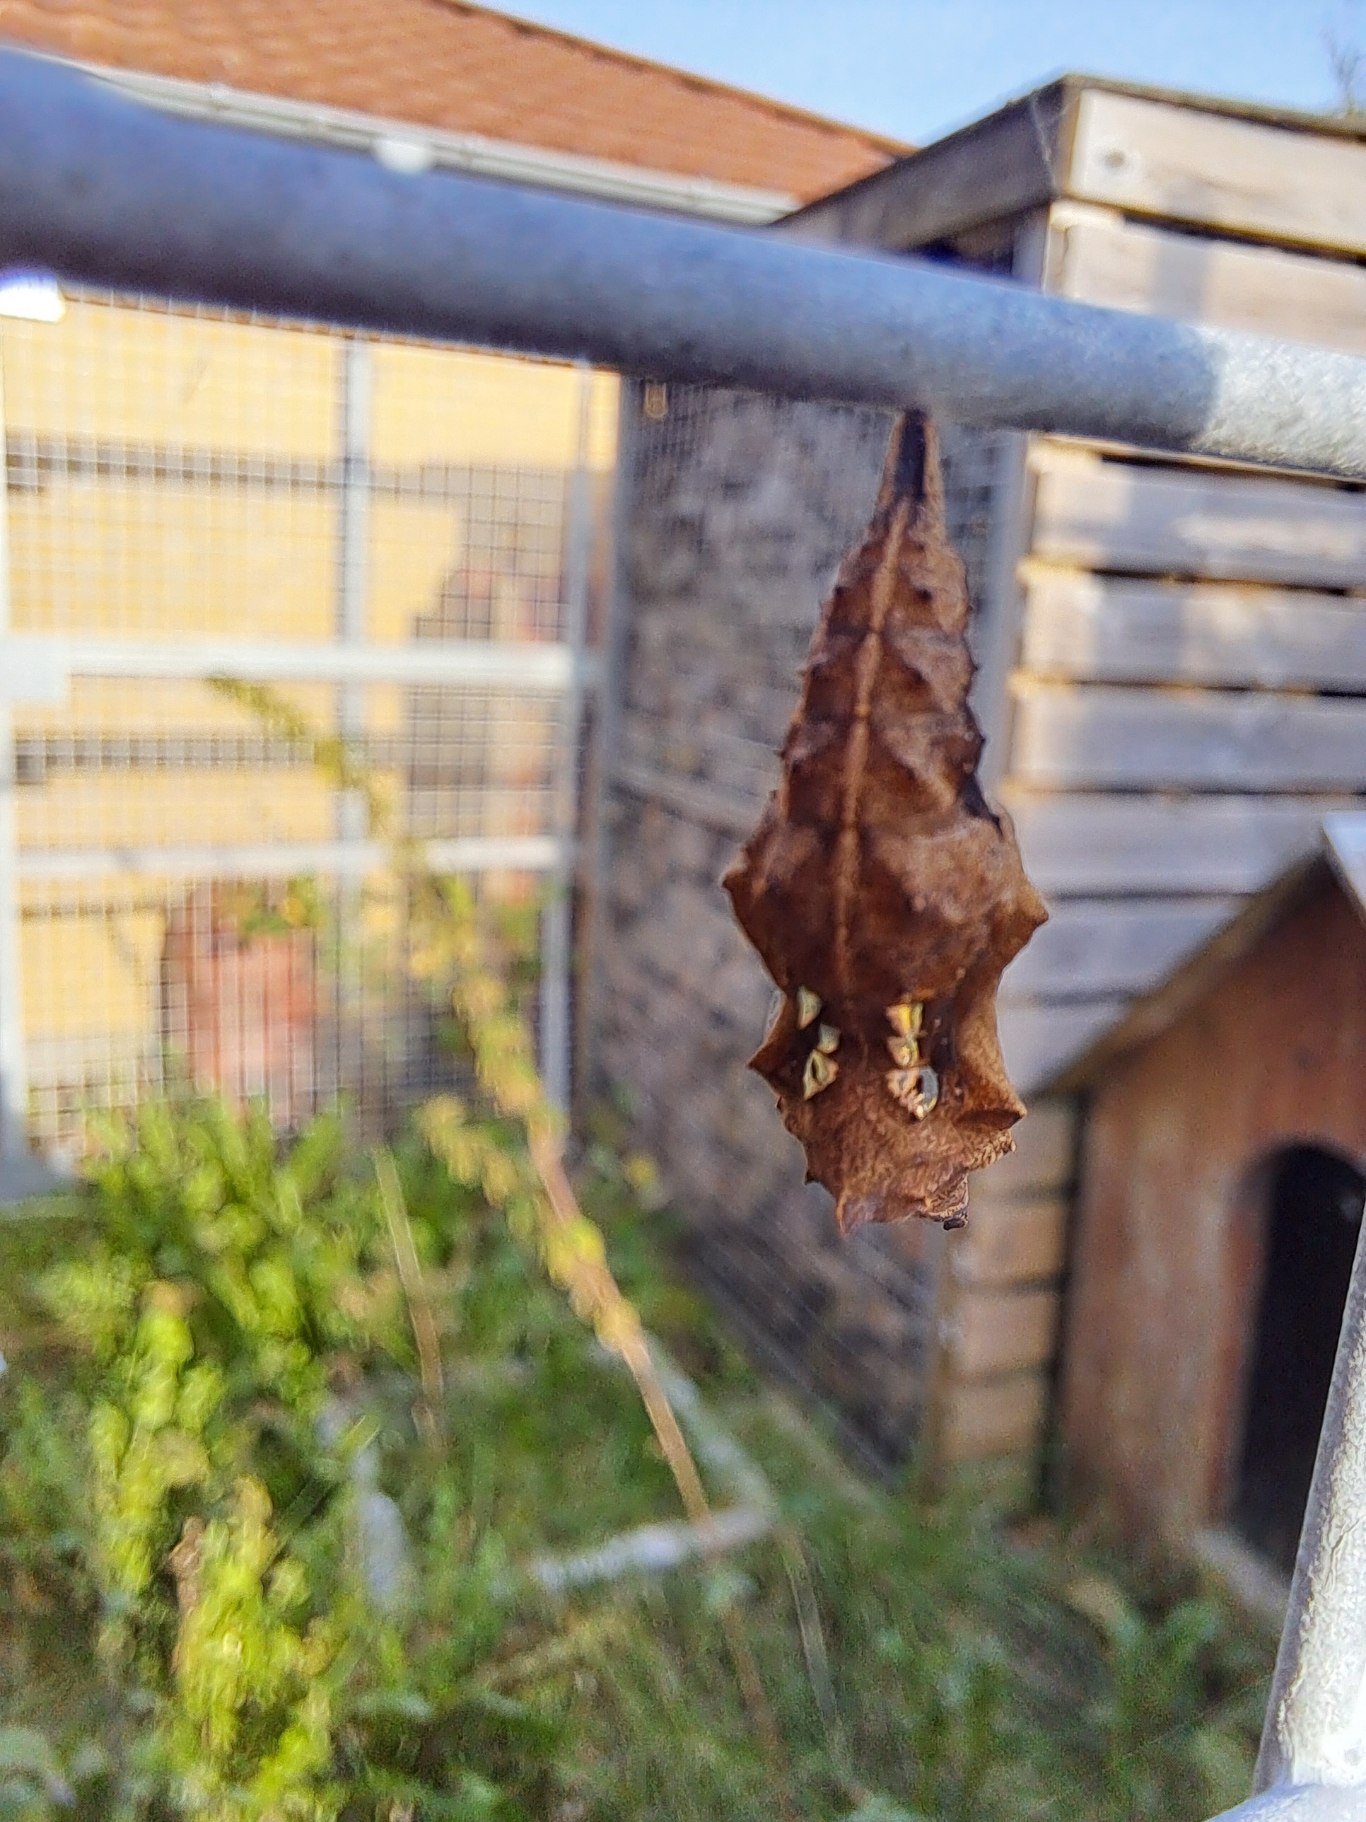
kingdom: Animalia
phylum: Arthropoda
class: Insecta
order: Lepidoptera
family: Nymphalidae
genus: Polygonia
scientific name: Polygonia c-album
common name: Det hvide C
